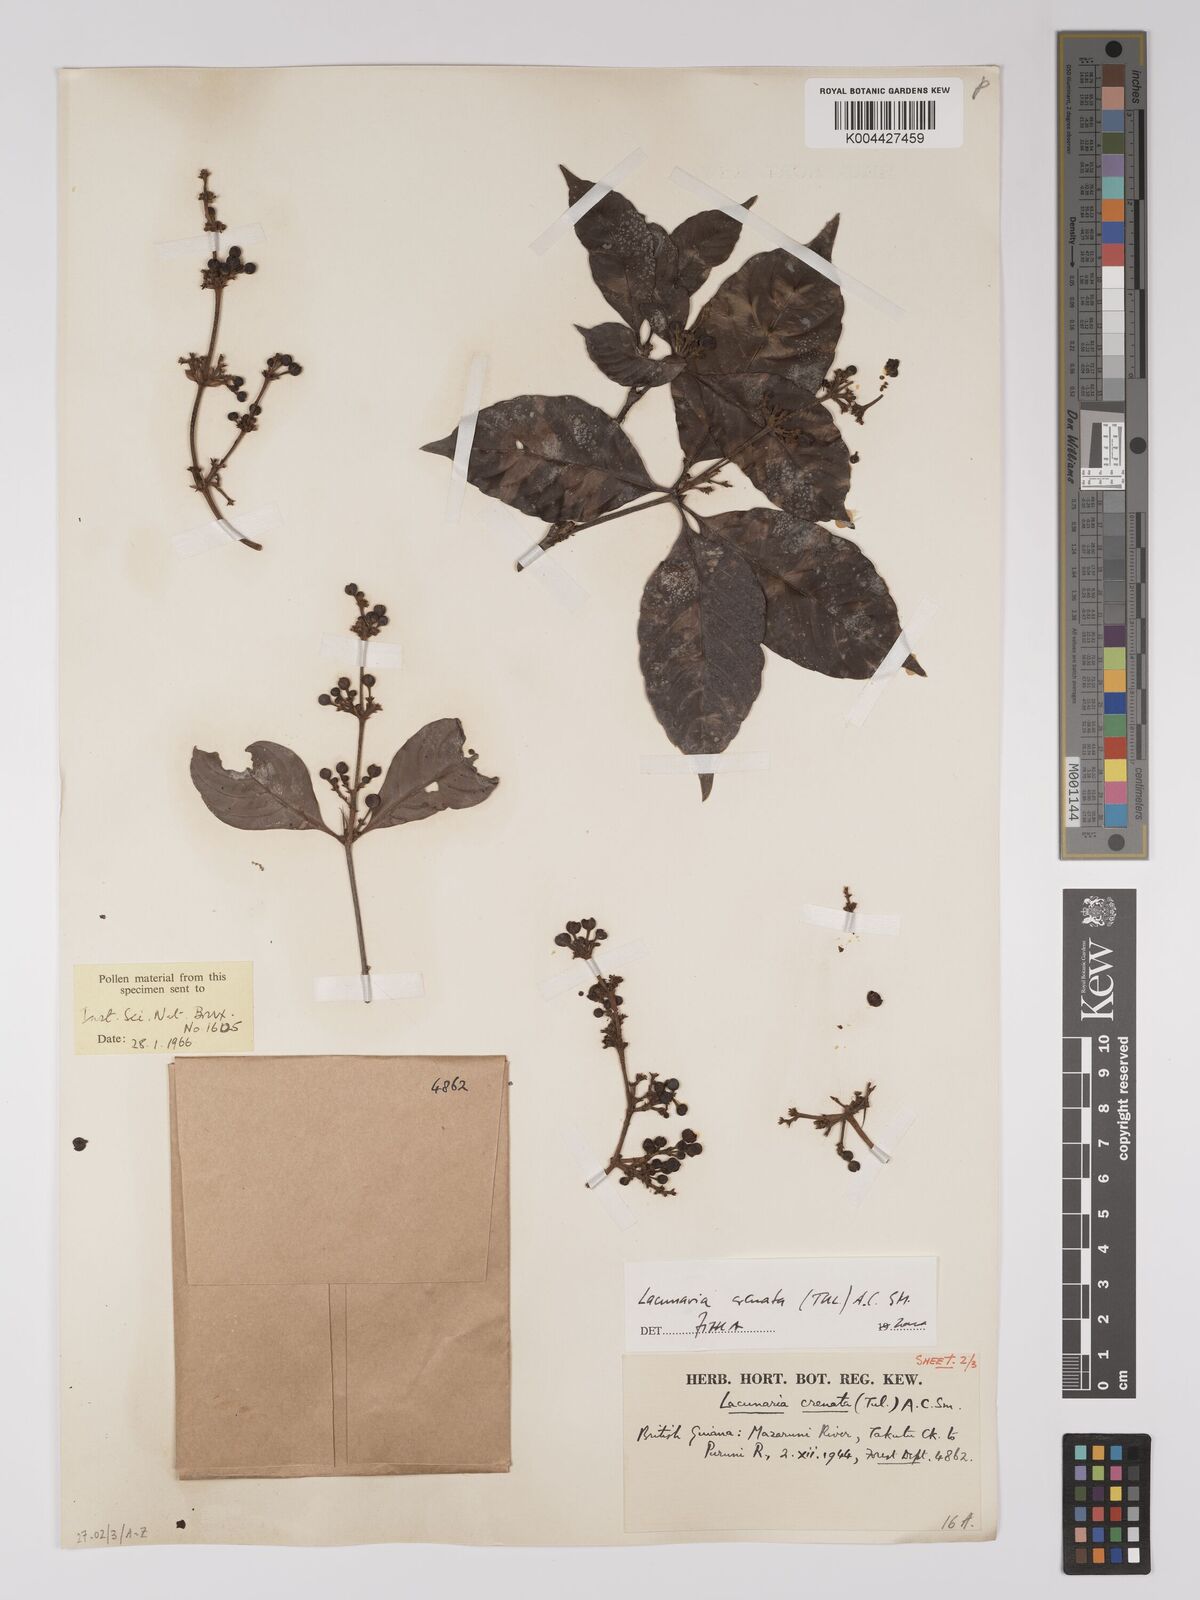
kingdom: Plantae
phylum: Tracheophyta
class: Magnoliopsida
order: Malpighiales
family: Quiinaceae
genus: Lacunaria
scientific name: Lacunaria crenata
